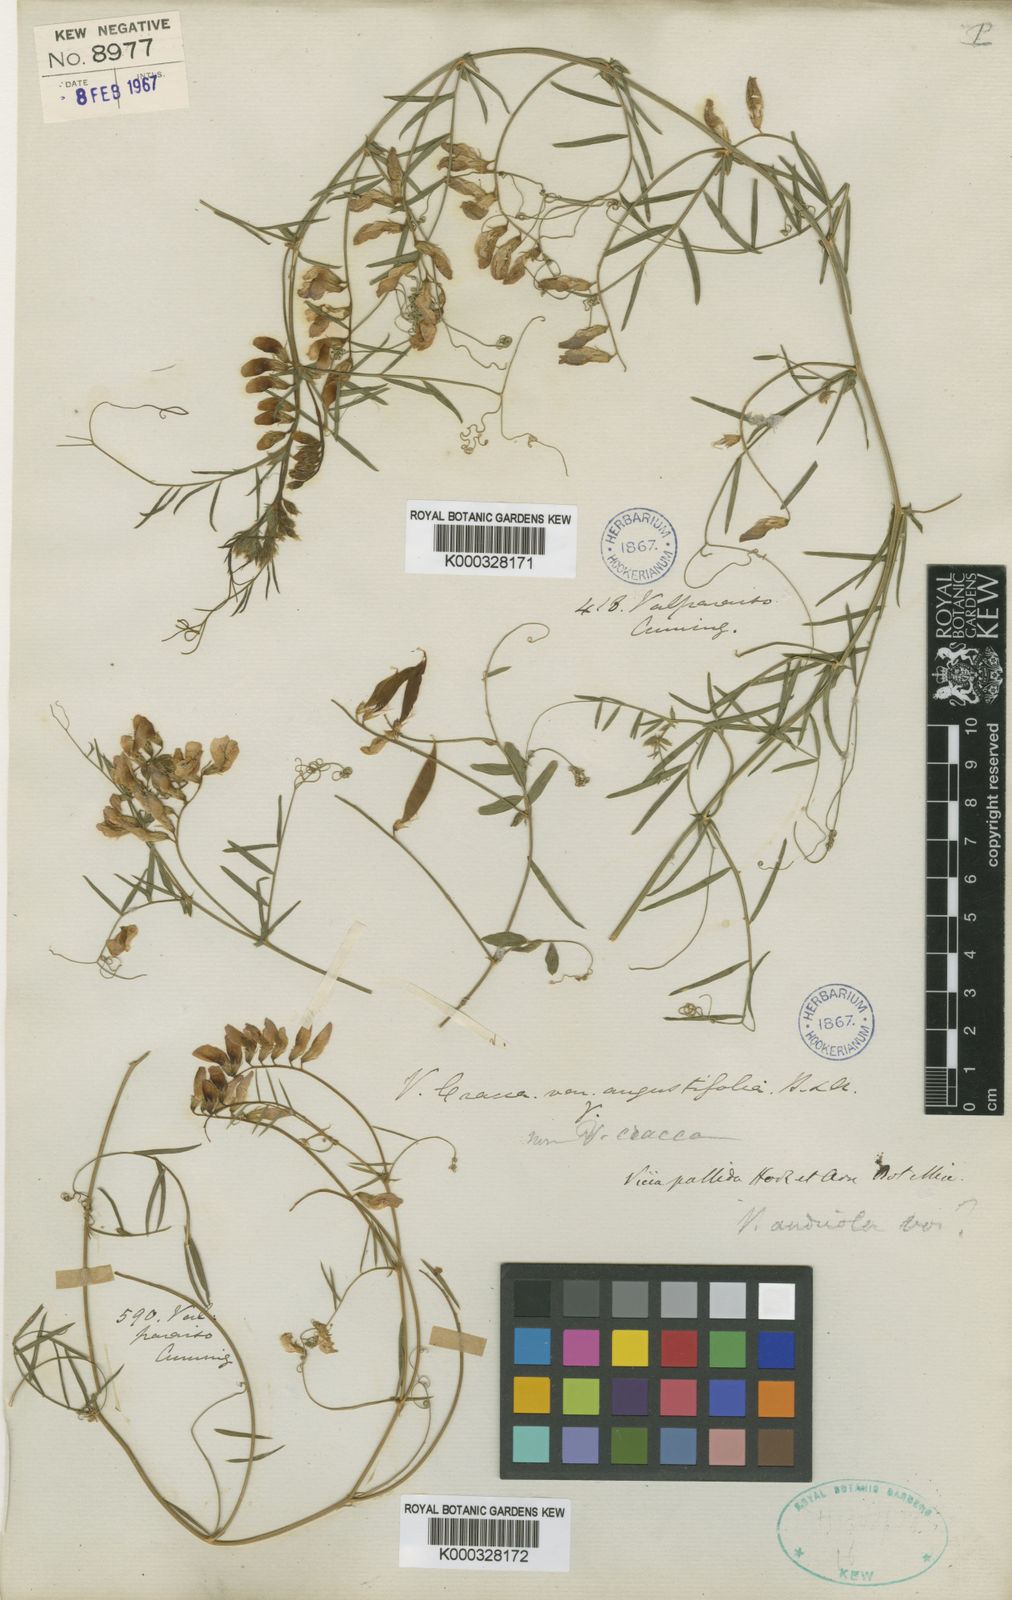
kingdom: Plantae
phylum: Tracheophyta
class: Magnoliopsida
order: Fabales
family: Fabaceae
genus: Vicia
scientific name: Vicia pallida
